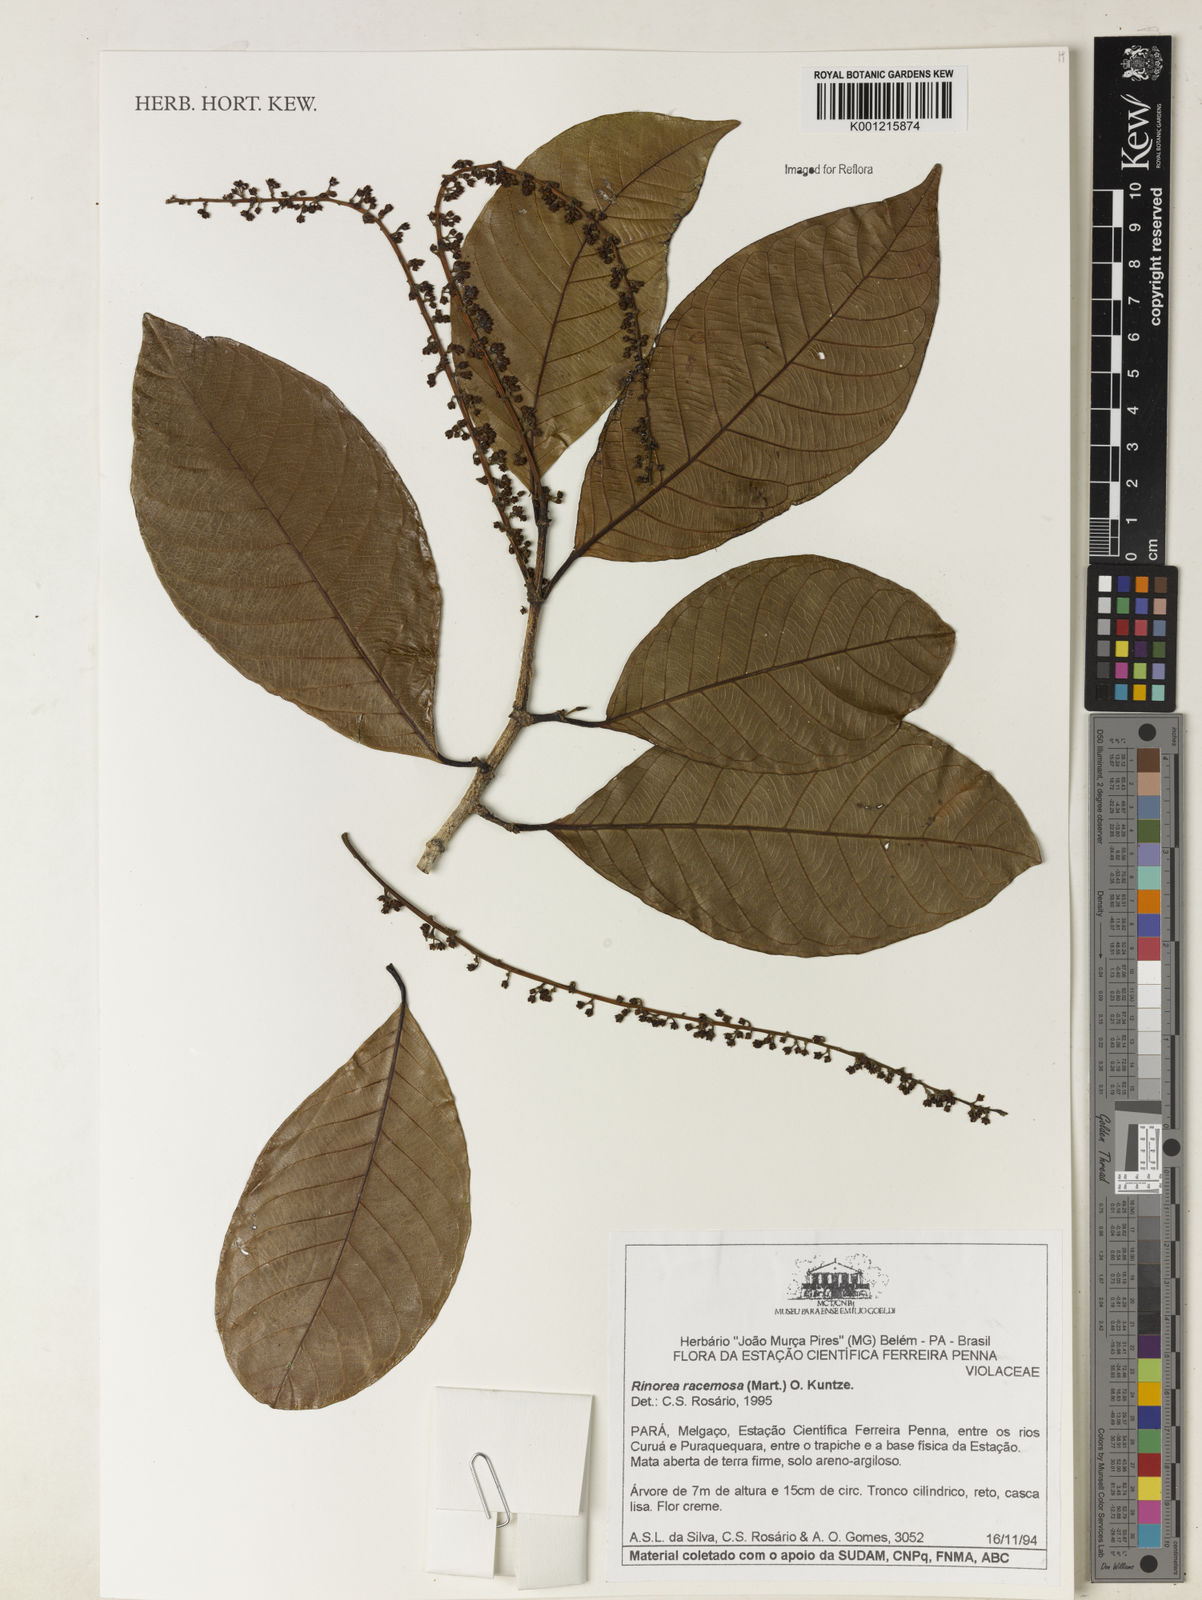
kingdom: Plantae
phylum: Tracheophyta
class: Magnoliopsida
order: Malpighiales
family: Violaceae
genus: Rinorea
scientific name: Rinorea racemosa
